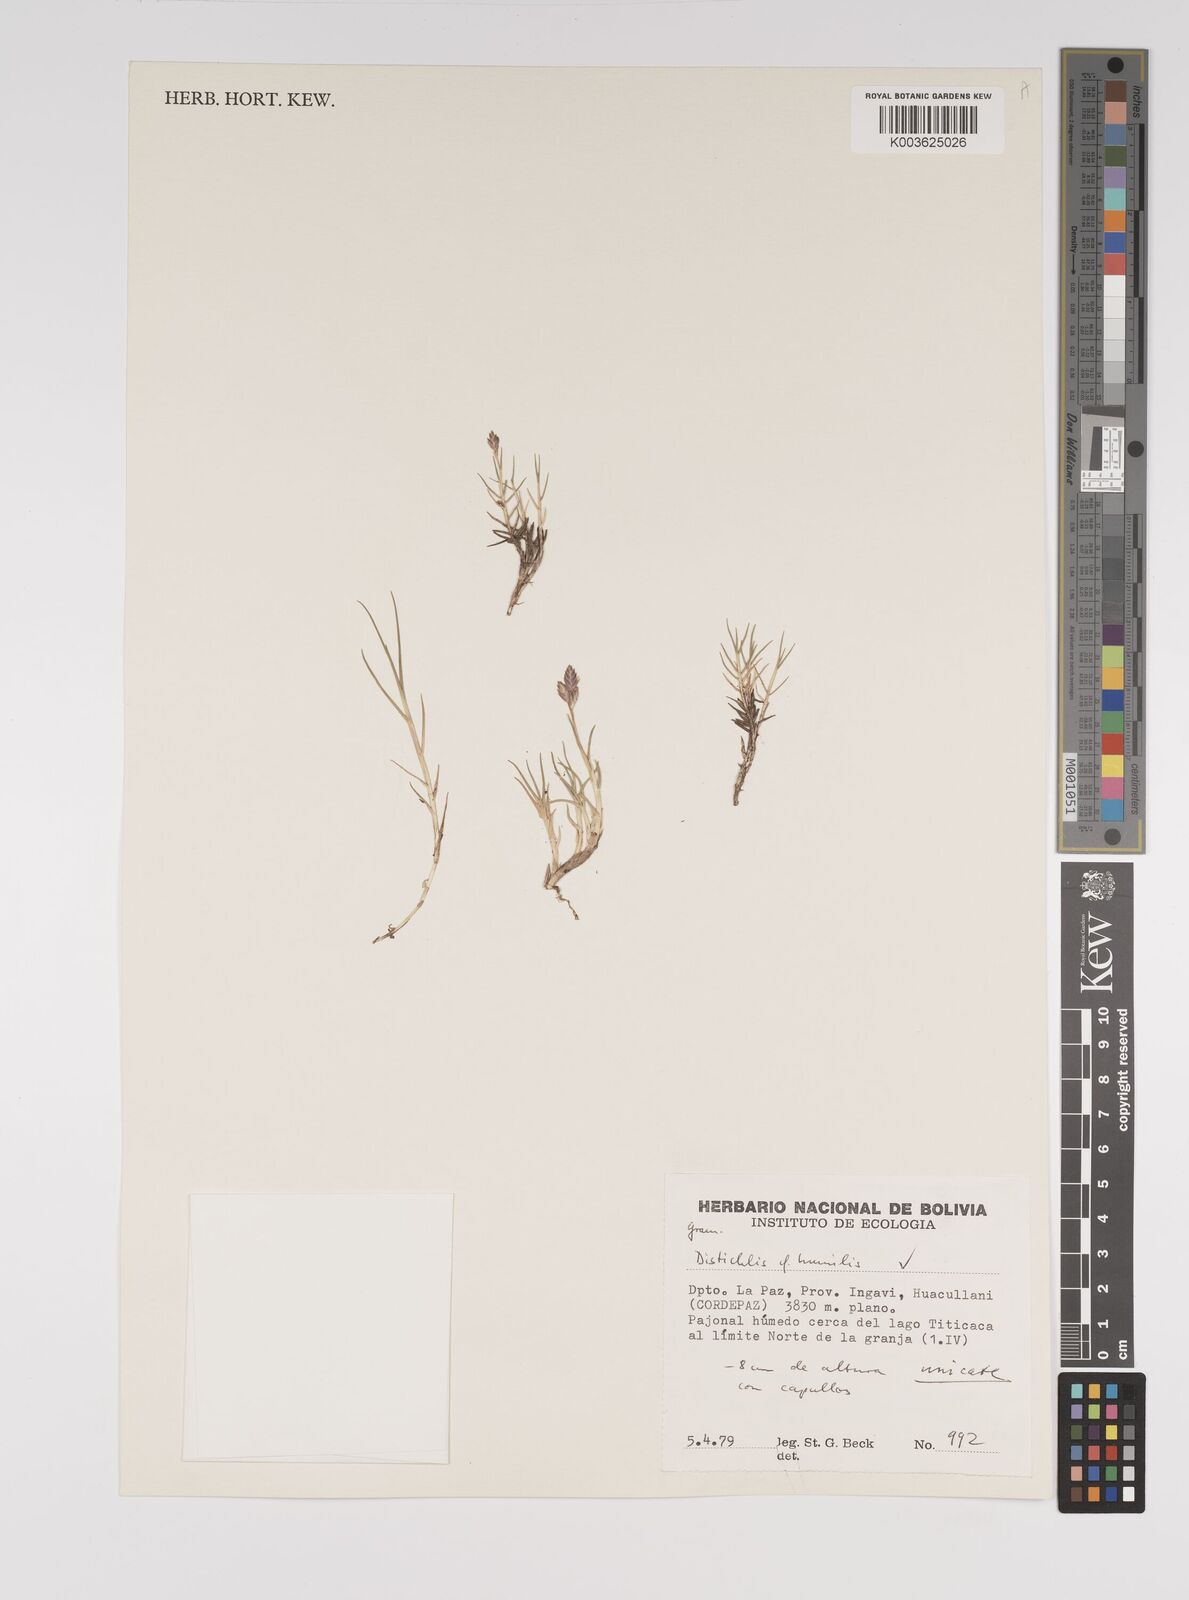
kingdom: Plantae
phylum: Tracheophyta
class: Liliopsida
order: Poales
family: Poaceae
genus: Distichlis
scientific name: Distichlis humilis
